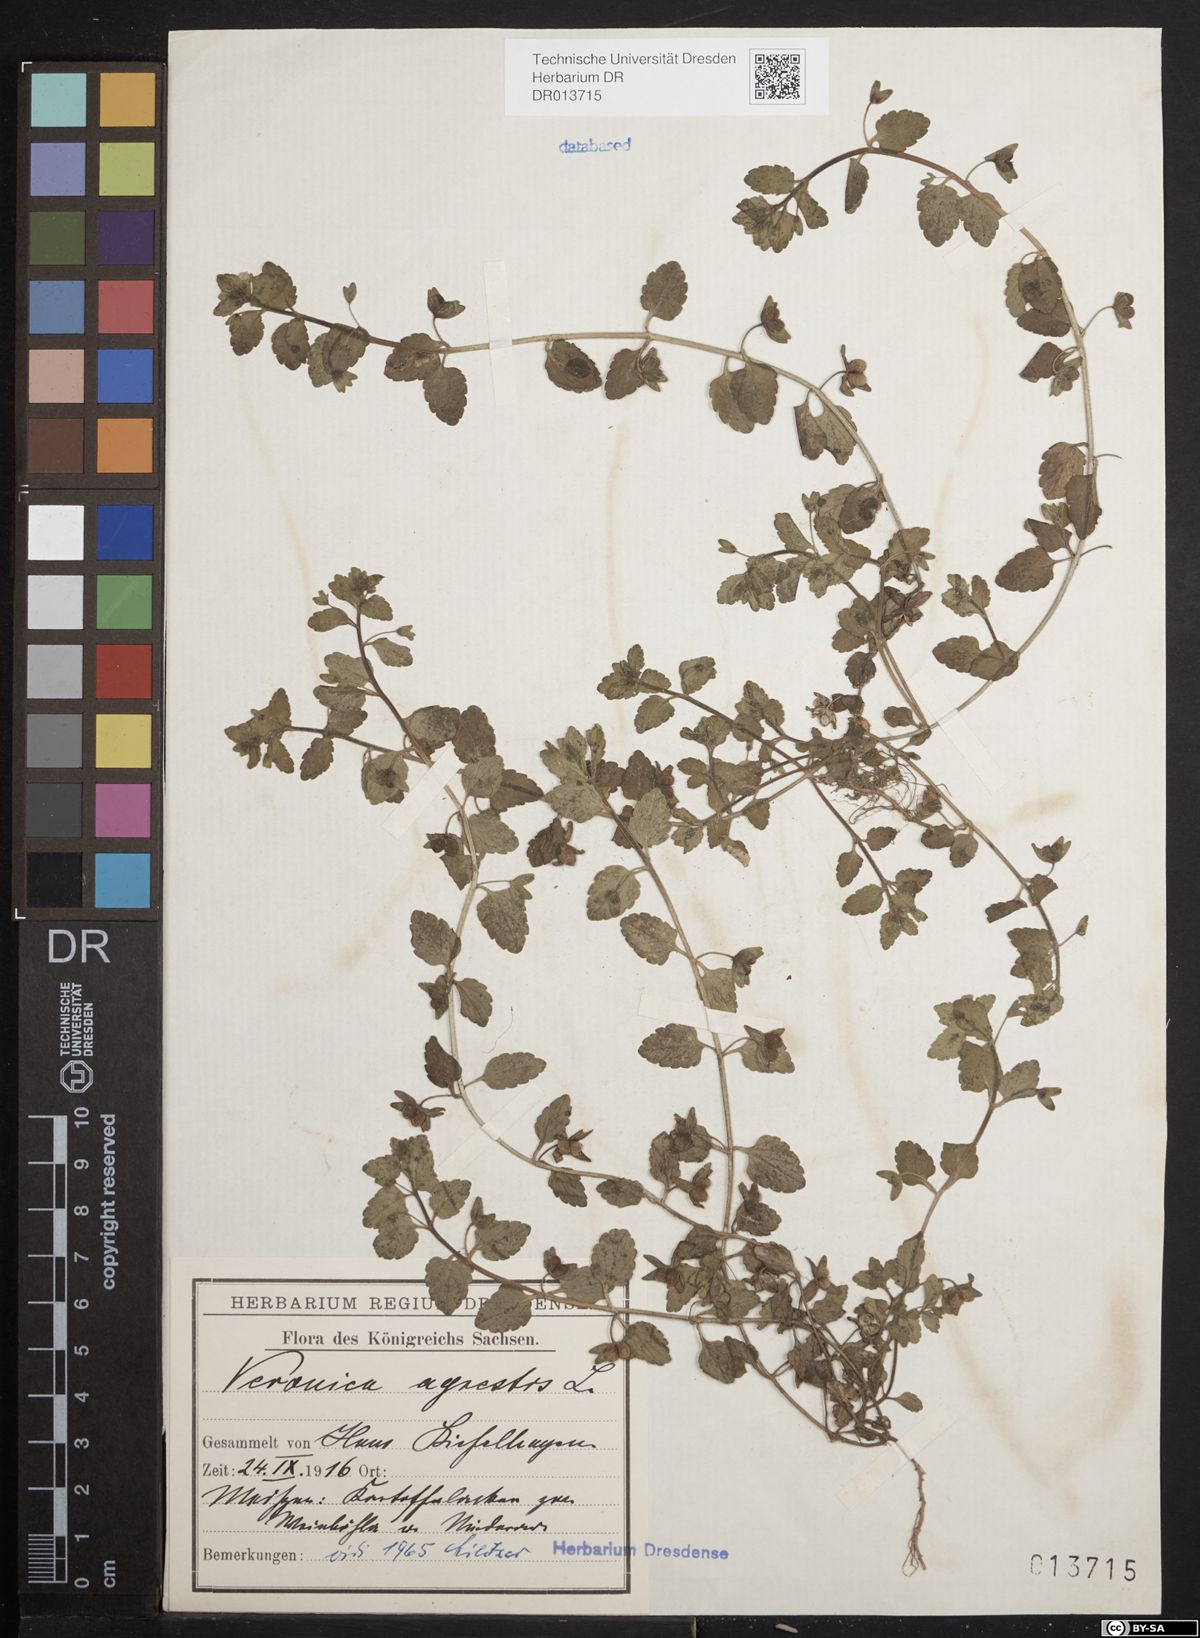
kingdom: Plantae
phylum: Tracheophyta
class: Magnoliopsida
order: Lamiales
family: Plantaginaceae
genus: Veronica
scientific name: Veronica agrestis
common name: Green field-speedwell
